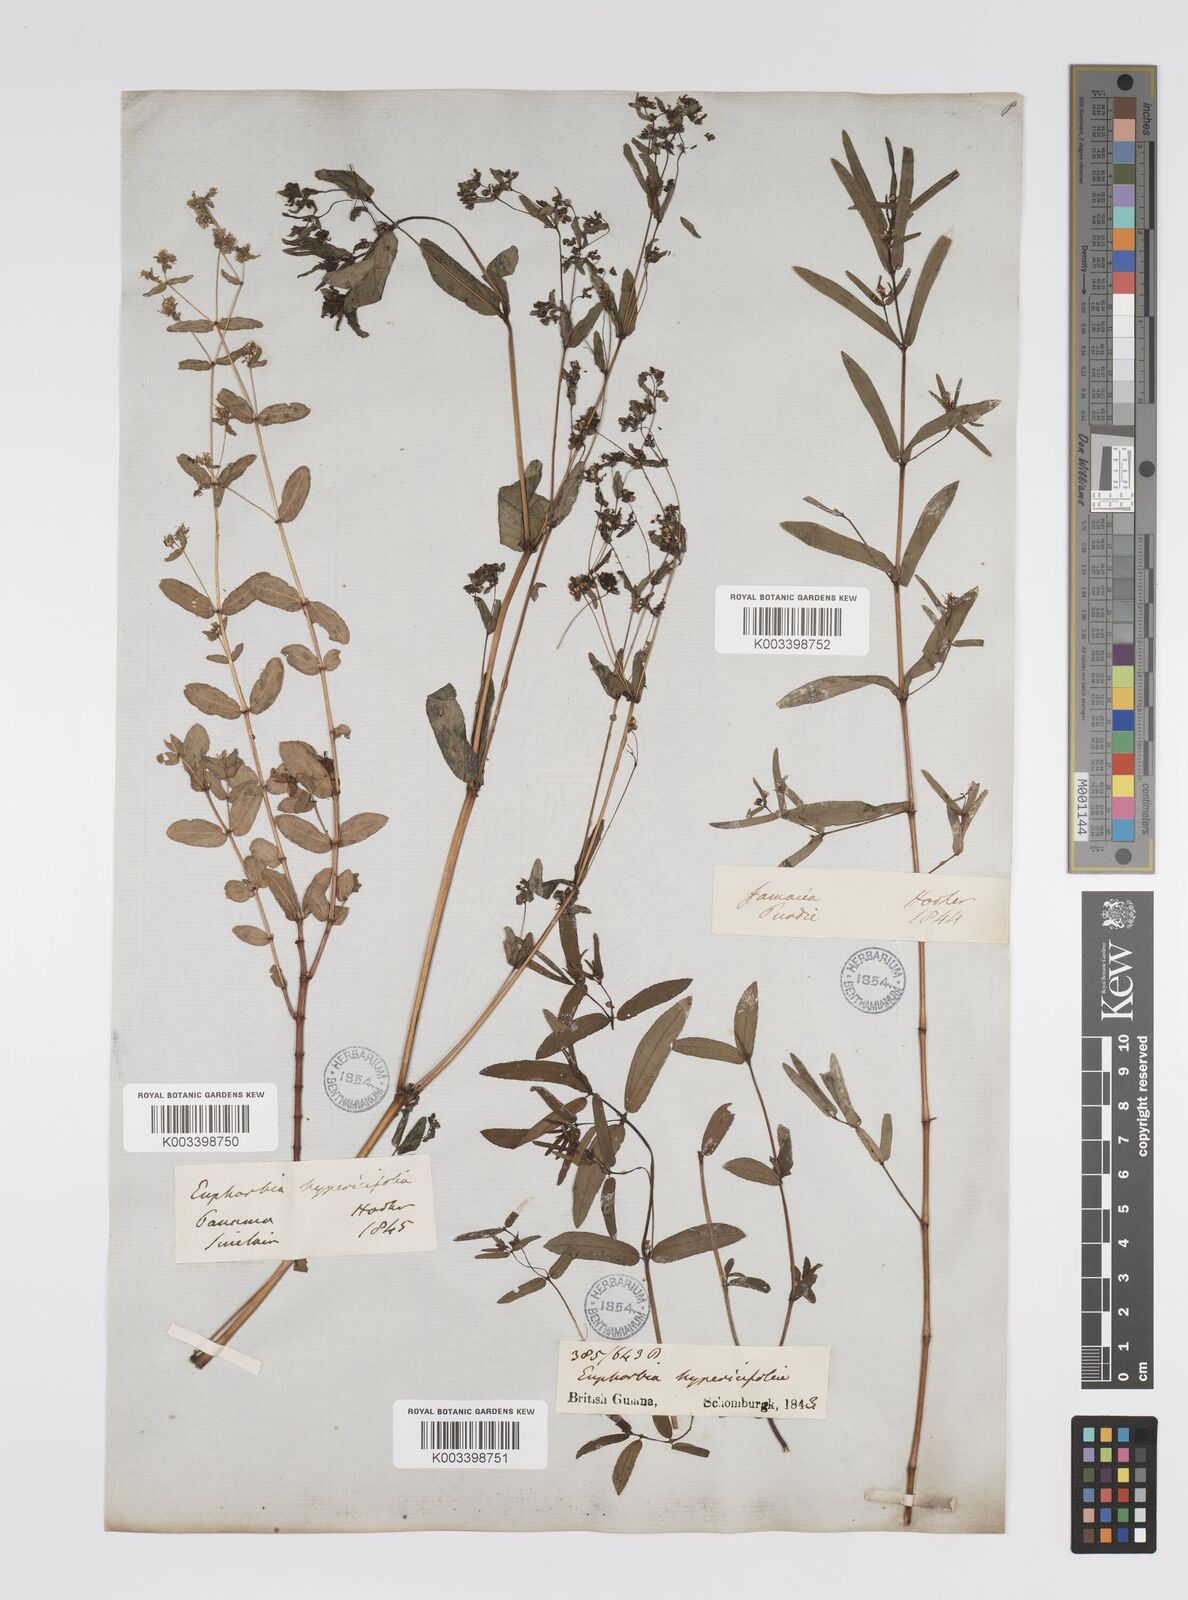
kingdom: Plantae
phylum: Tracheophyta
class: Magnoliopsida
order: Malpighiales
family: Euphorbiaceae
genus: Euphorbia
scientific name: Euphorbia
